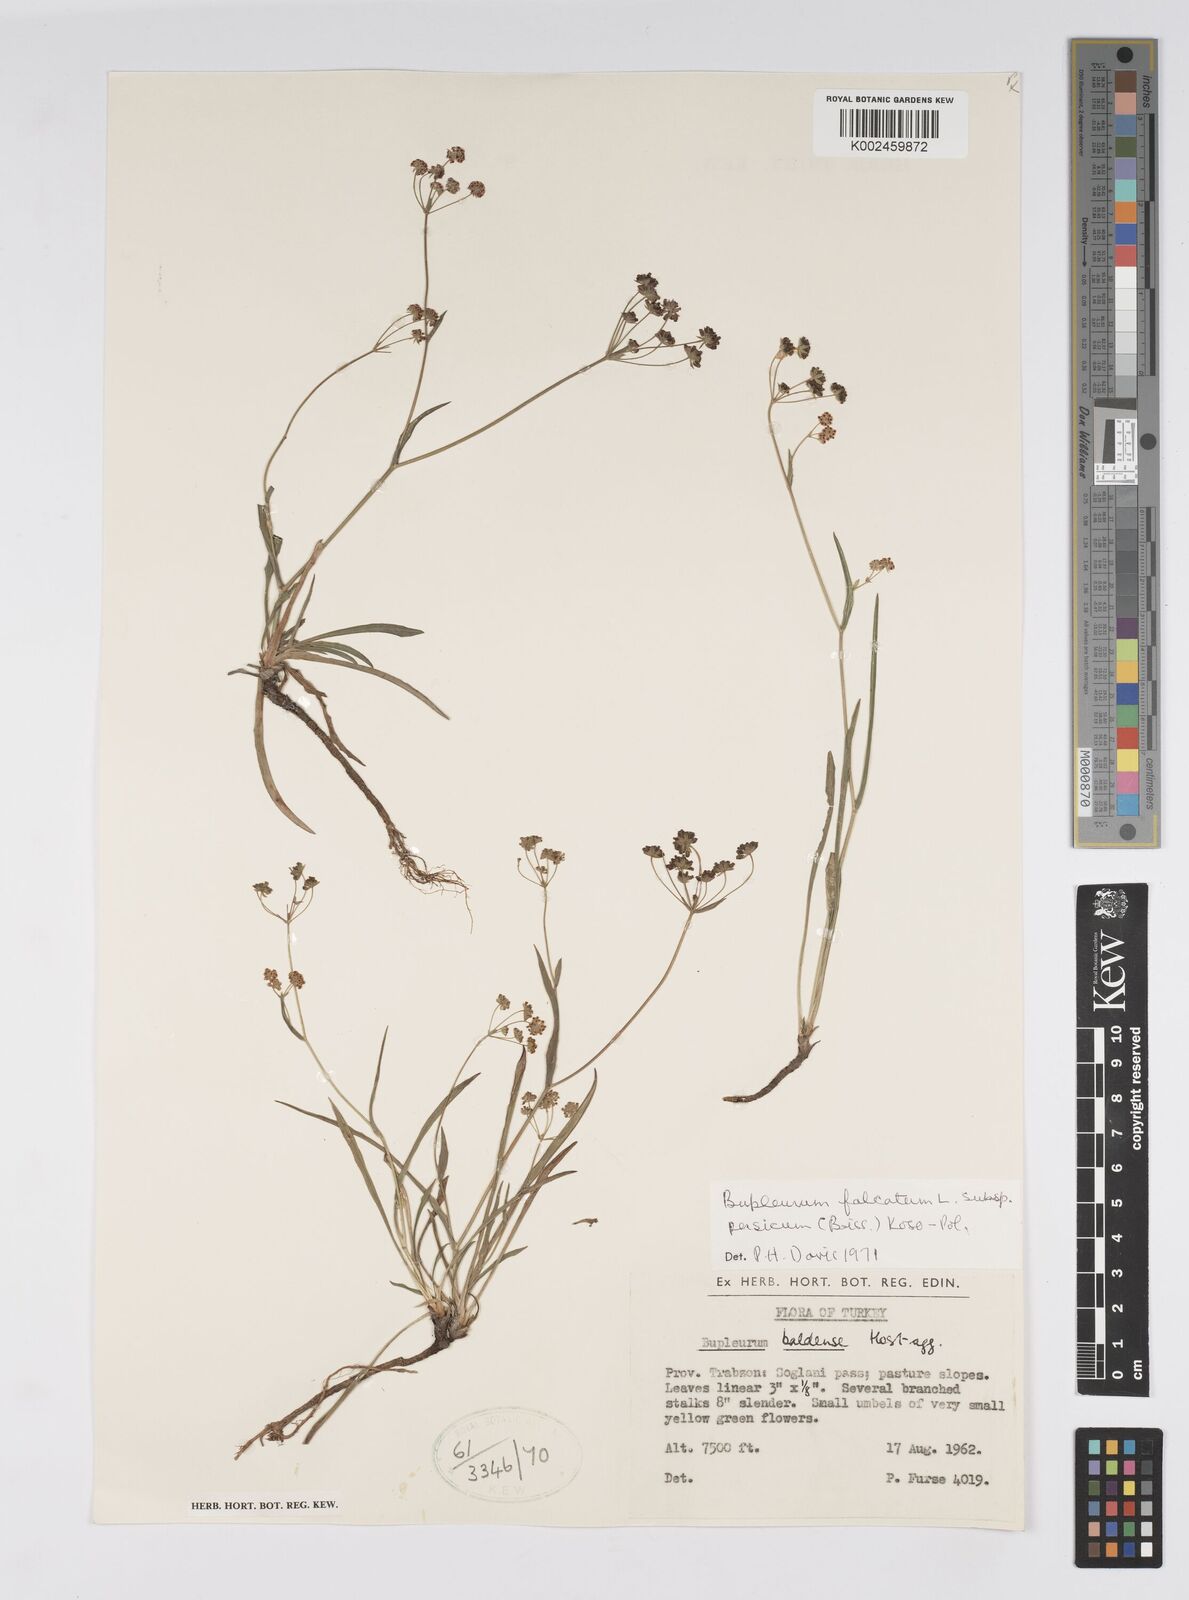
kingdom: Plantae
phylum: Tracheophyta
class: Magnoliopsida
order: Apiales
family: Apiaceae
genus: Bupleurum
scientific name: Bupleurum falcatum
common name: Sickle-leaved hare's-ear
